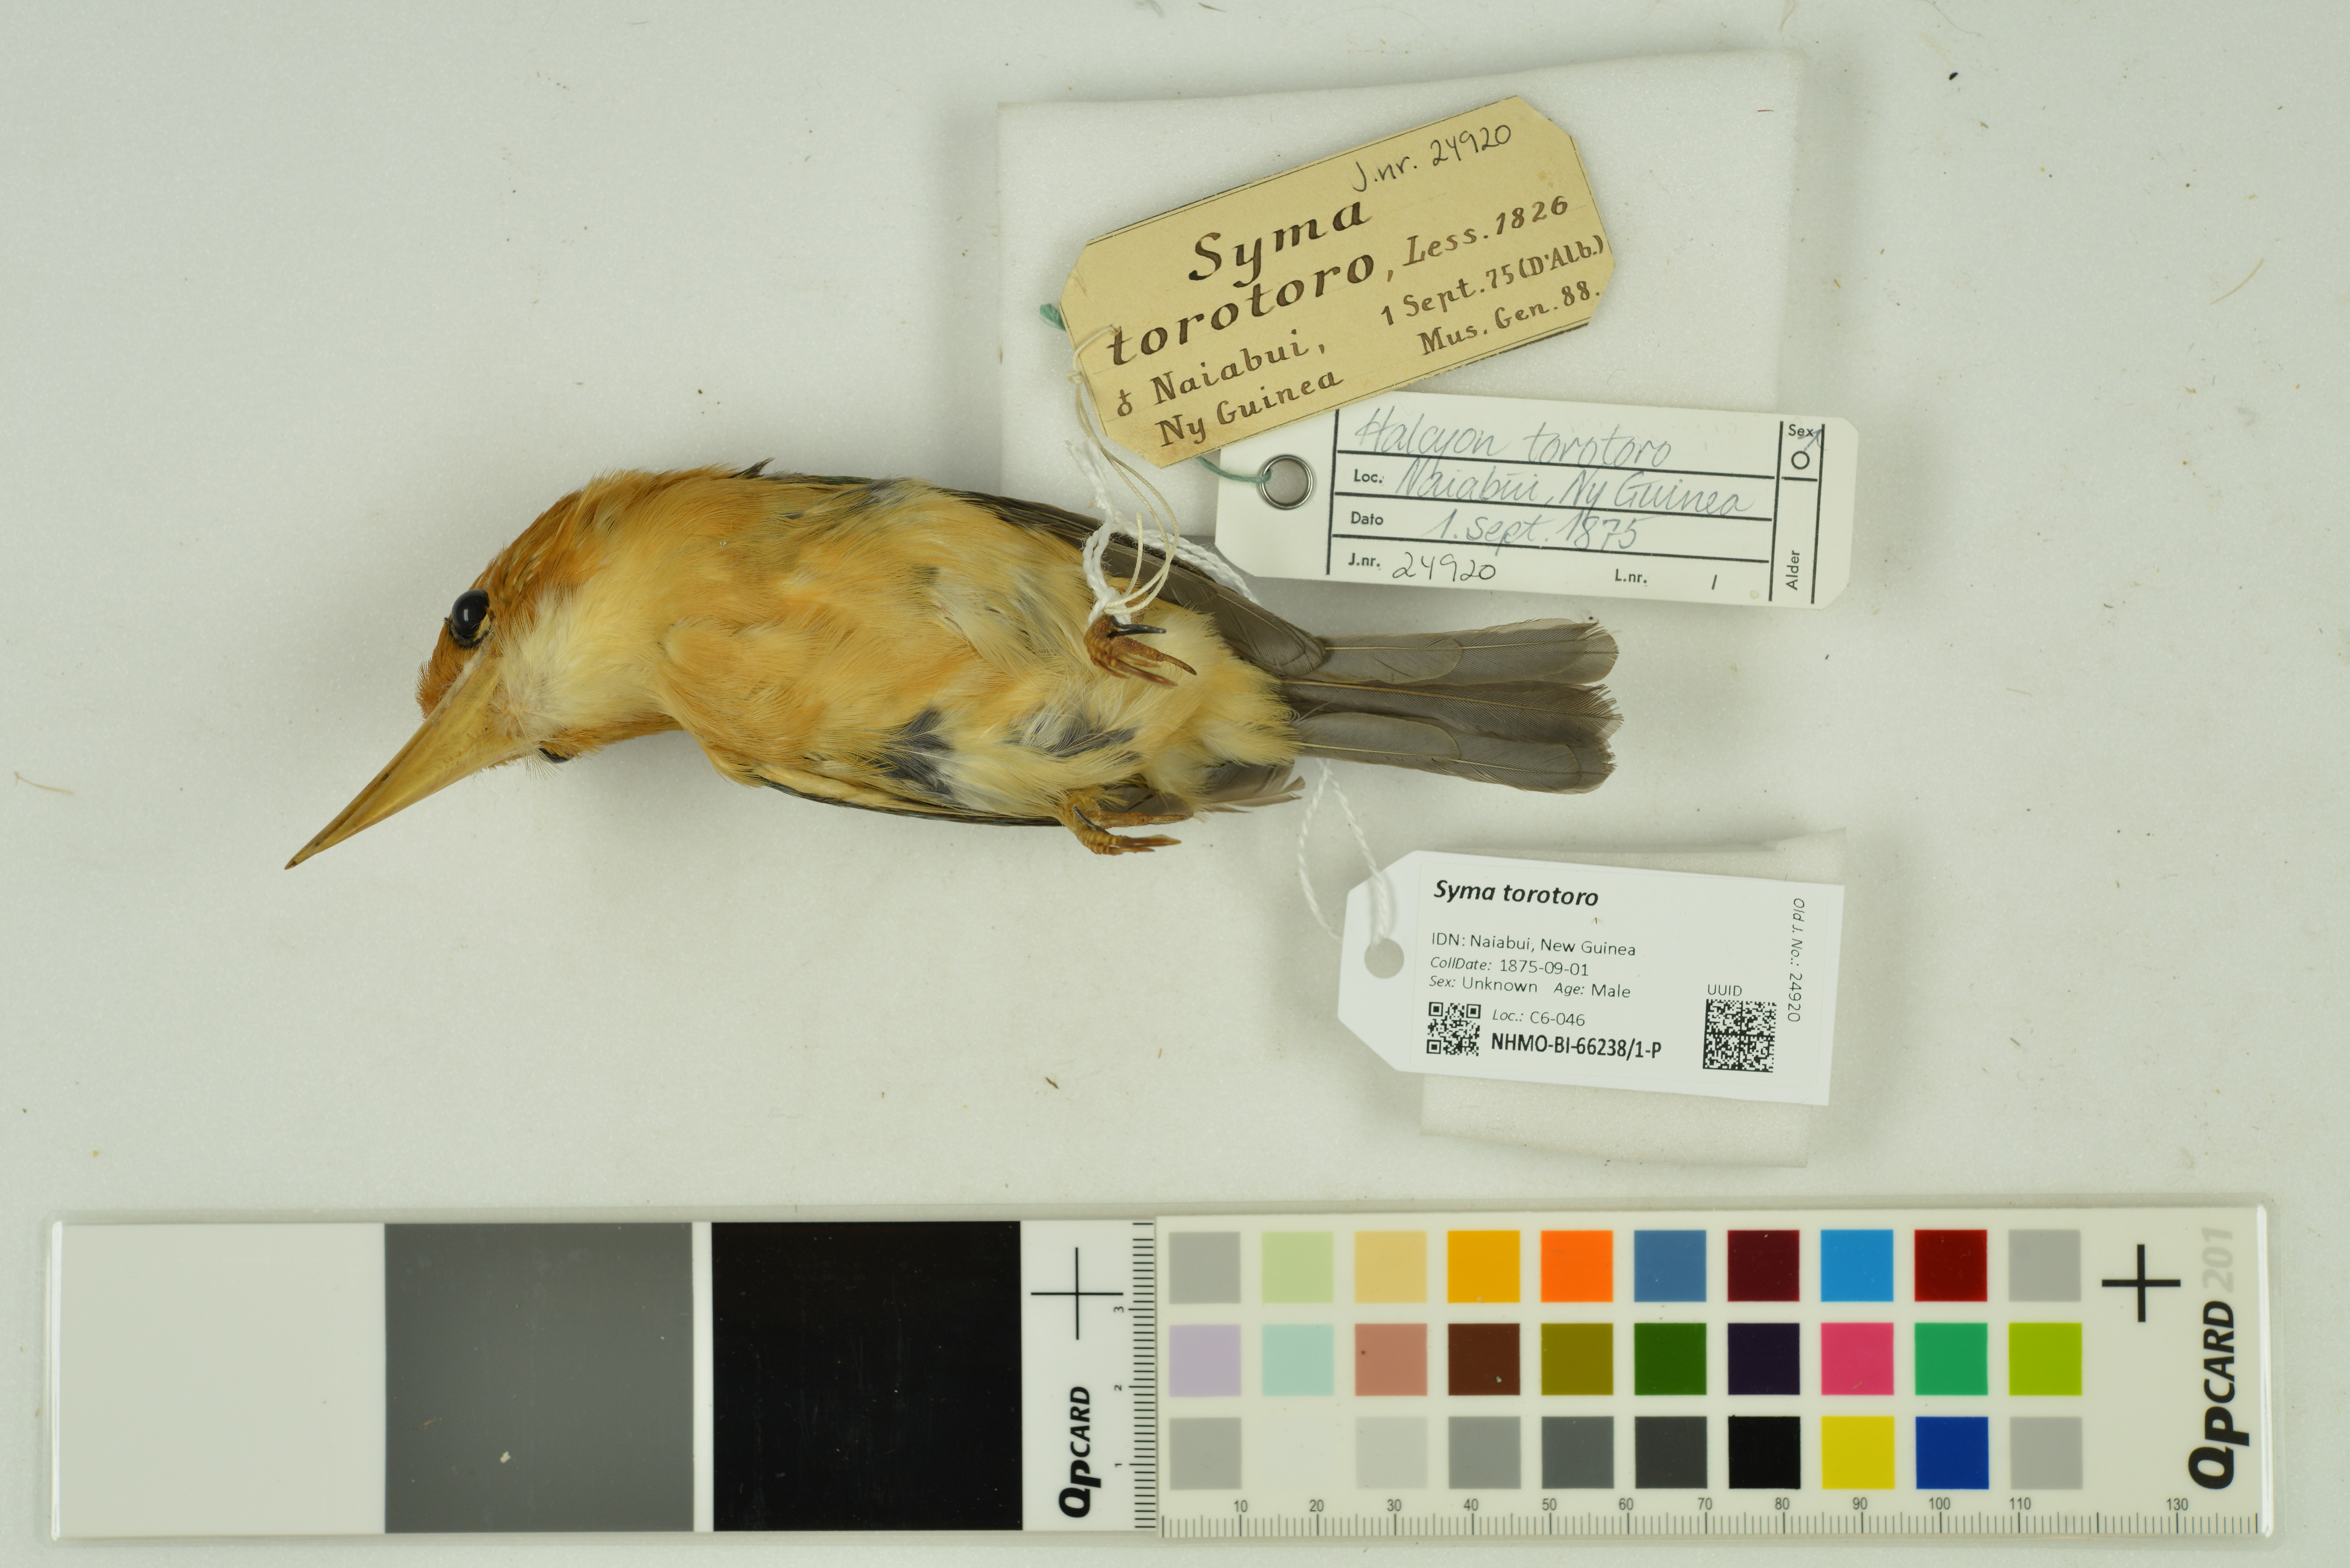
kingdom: Animalia
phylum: Chordata
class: Aves
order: Coraciiformes
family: Alcedinidae
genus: Syma
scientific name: Syma torotoro
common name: Yellow-billed kingfisher
